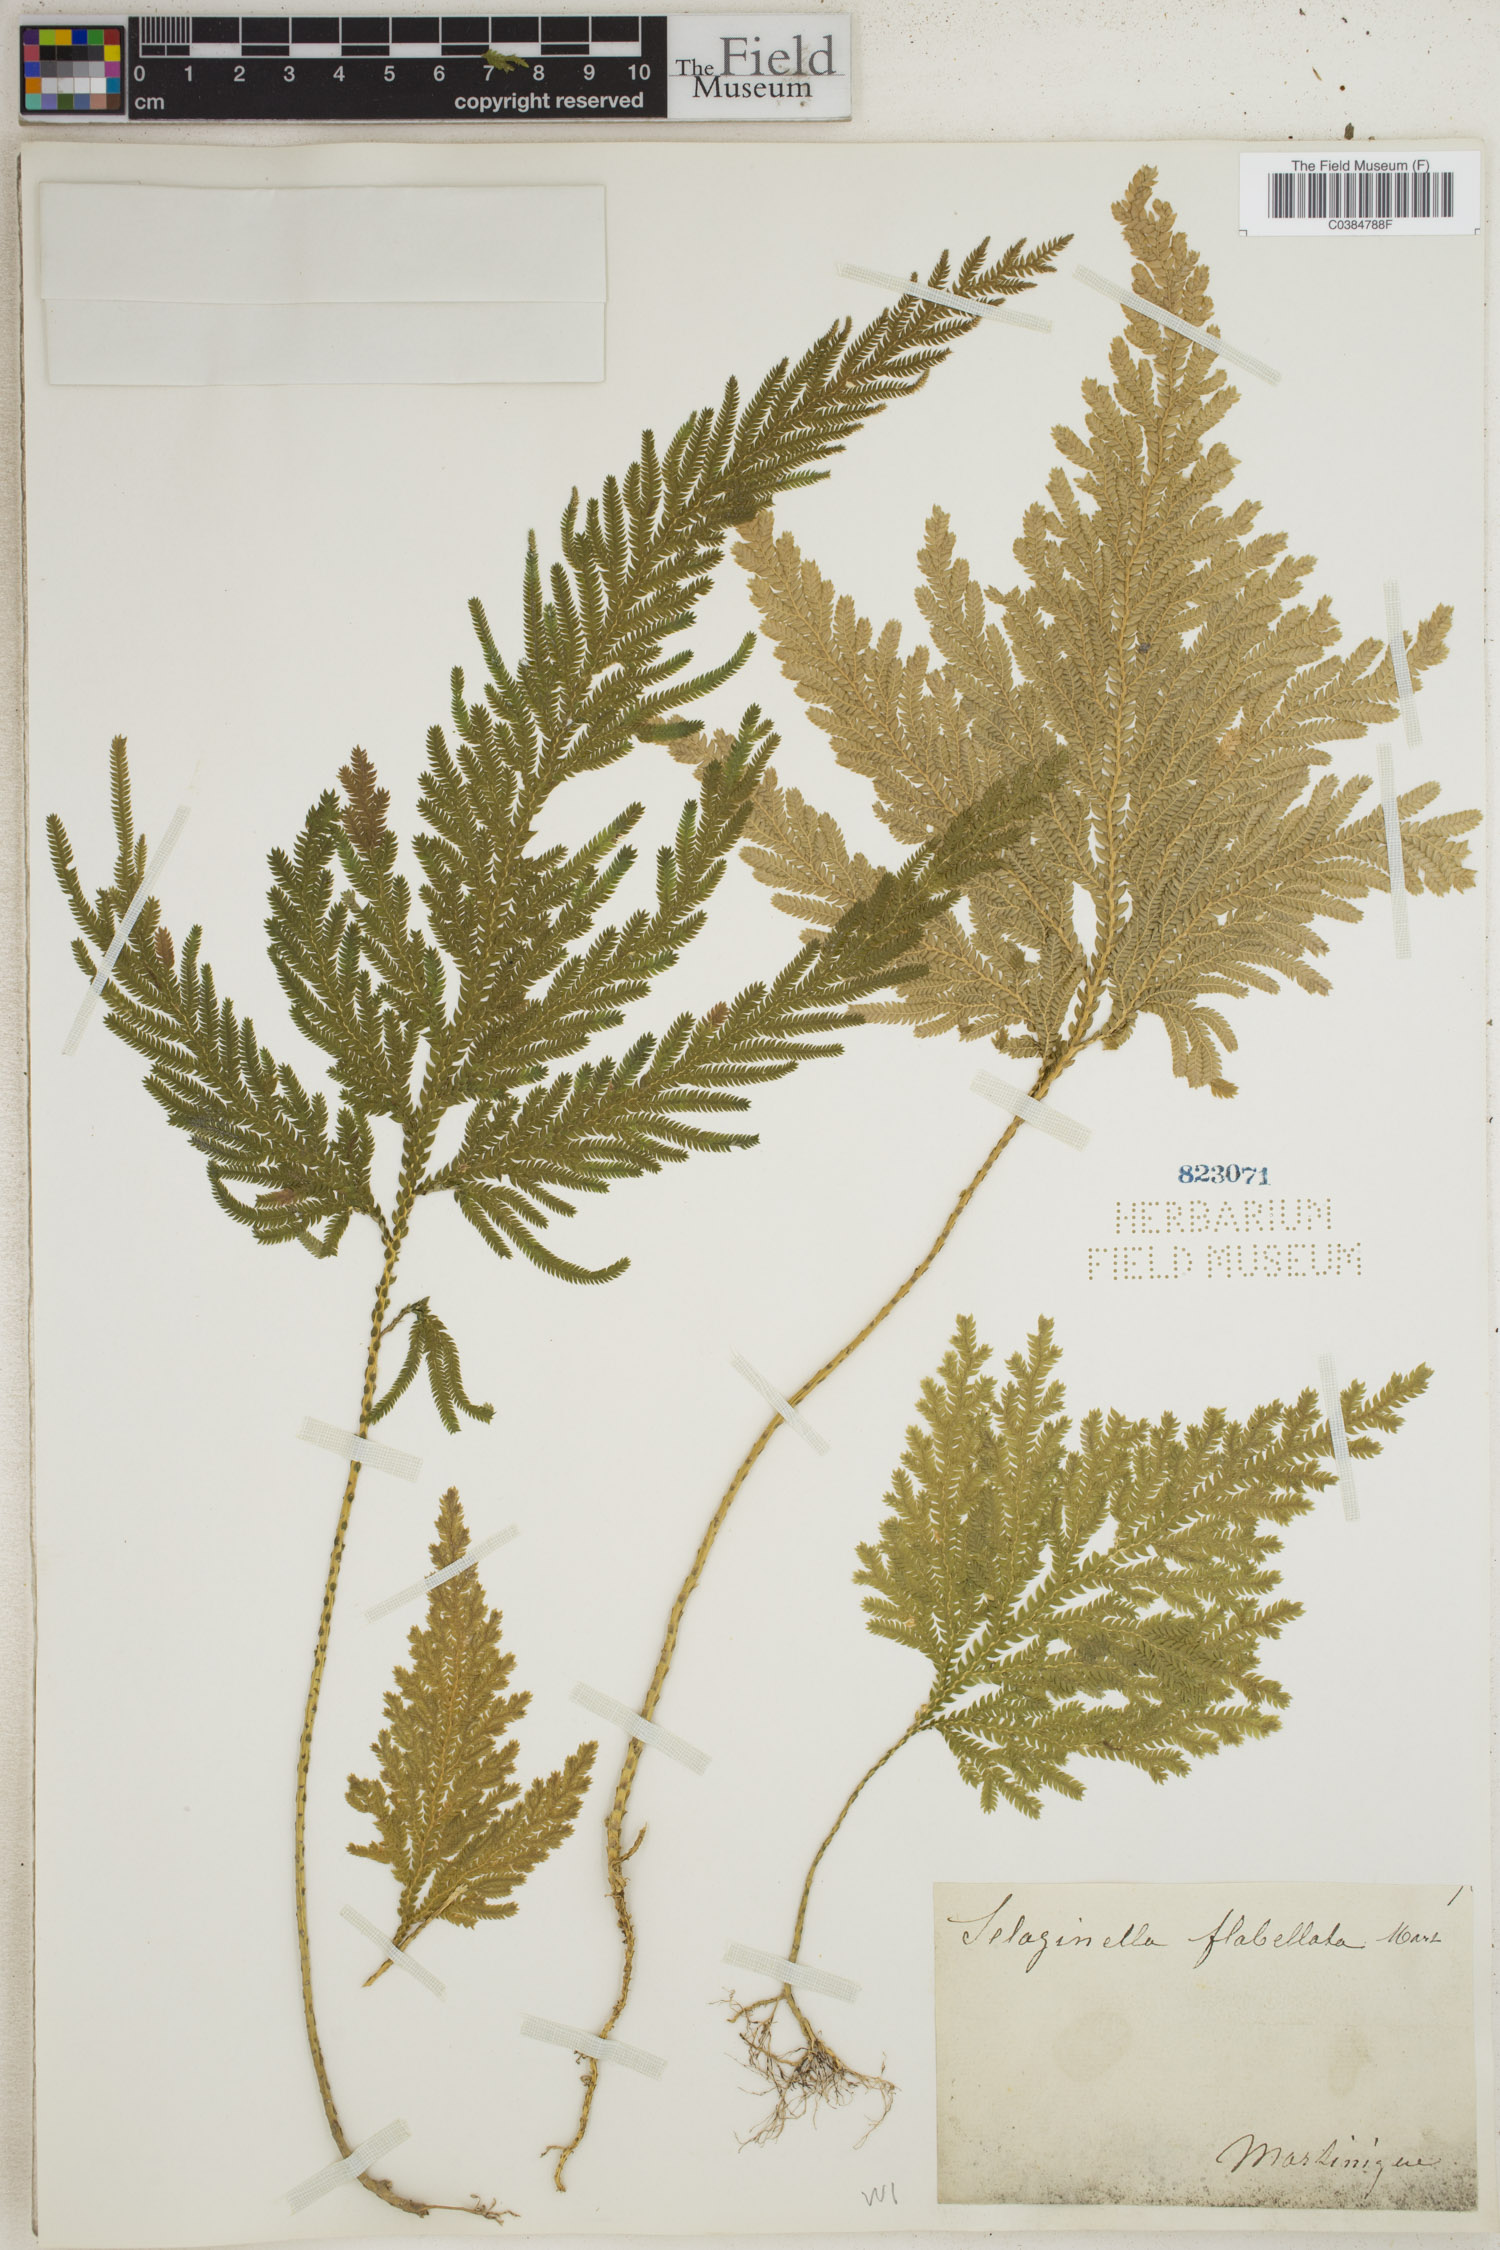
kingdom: Plantae
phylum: Tracheophyta
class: Lycopodiopsida
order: Selaginellales
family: Selaginellaceae
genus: Selaginella
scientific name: Selaginella flabellata
